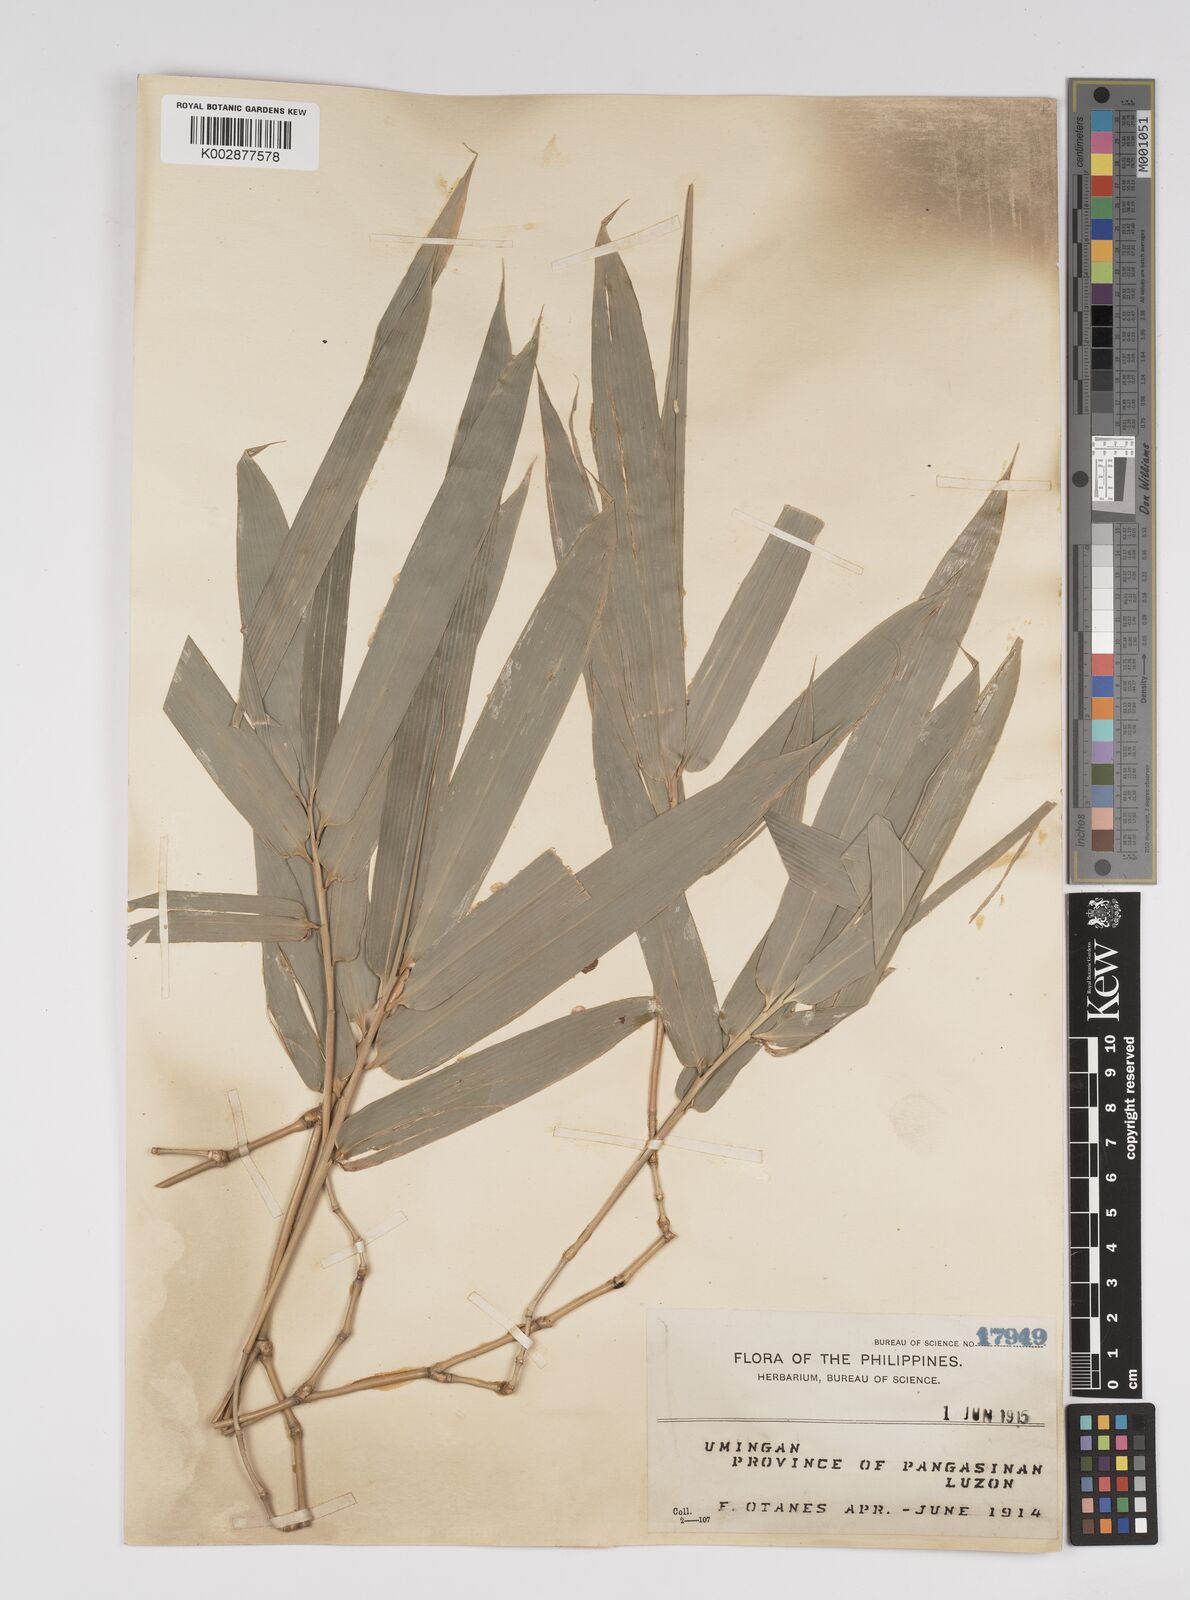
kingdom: Plantae
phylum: Tracheophyta
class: Liliopsida
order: Poales
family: Poaceae
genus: Bambusa
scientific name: Bambusa
